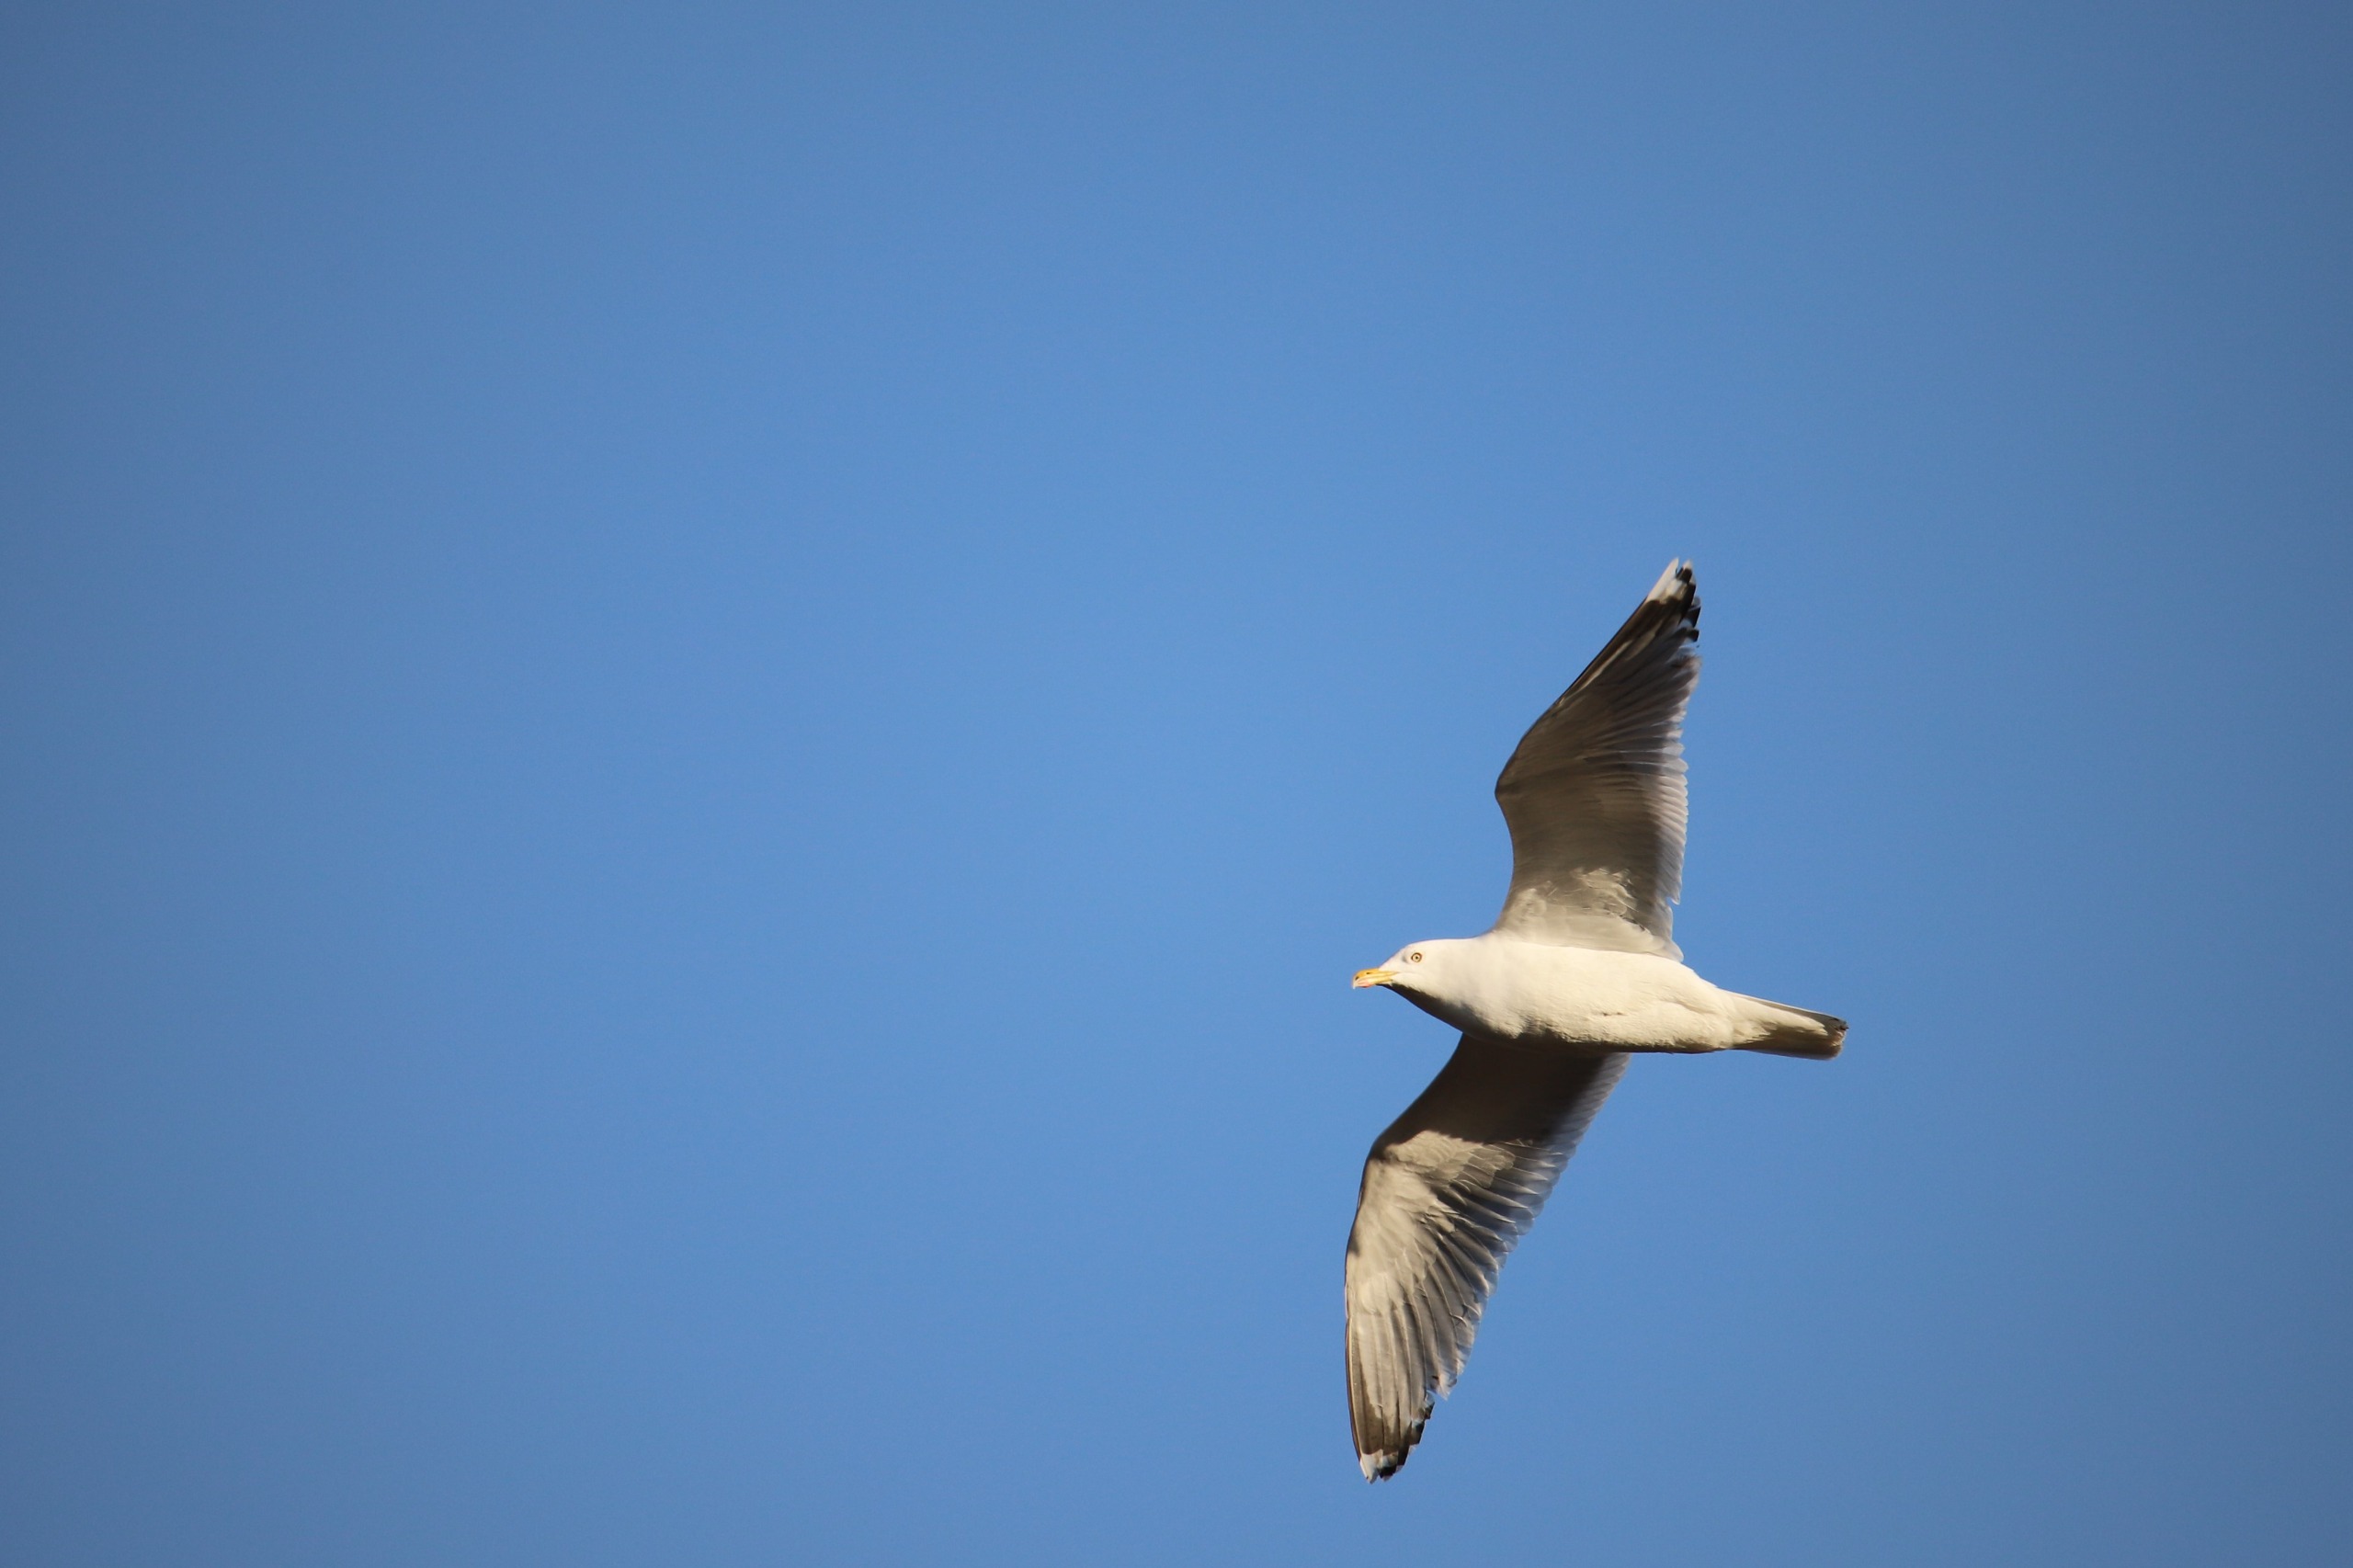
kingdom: Animalia
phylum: Chordata
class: Aves
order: Charadriiformes
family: Laridae
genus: Larus
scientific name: Larus argentatus
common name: Sølvmåge
